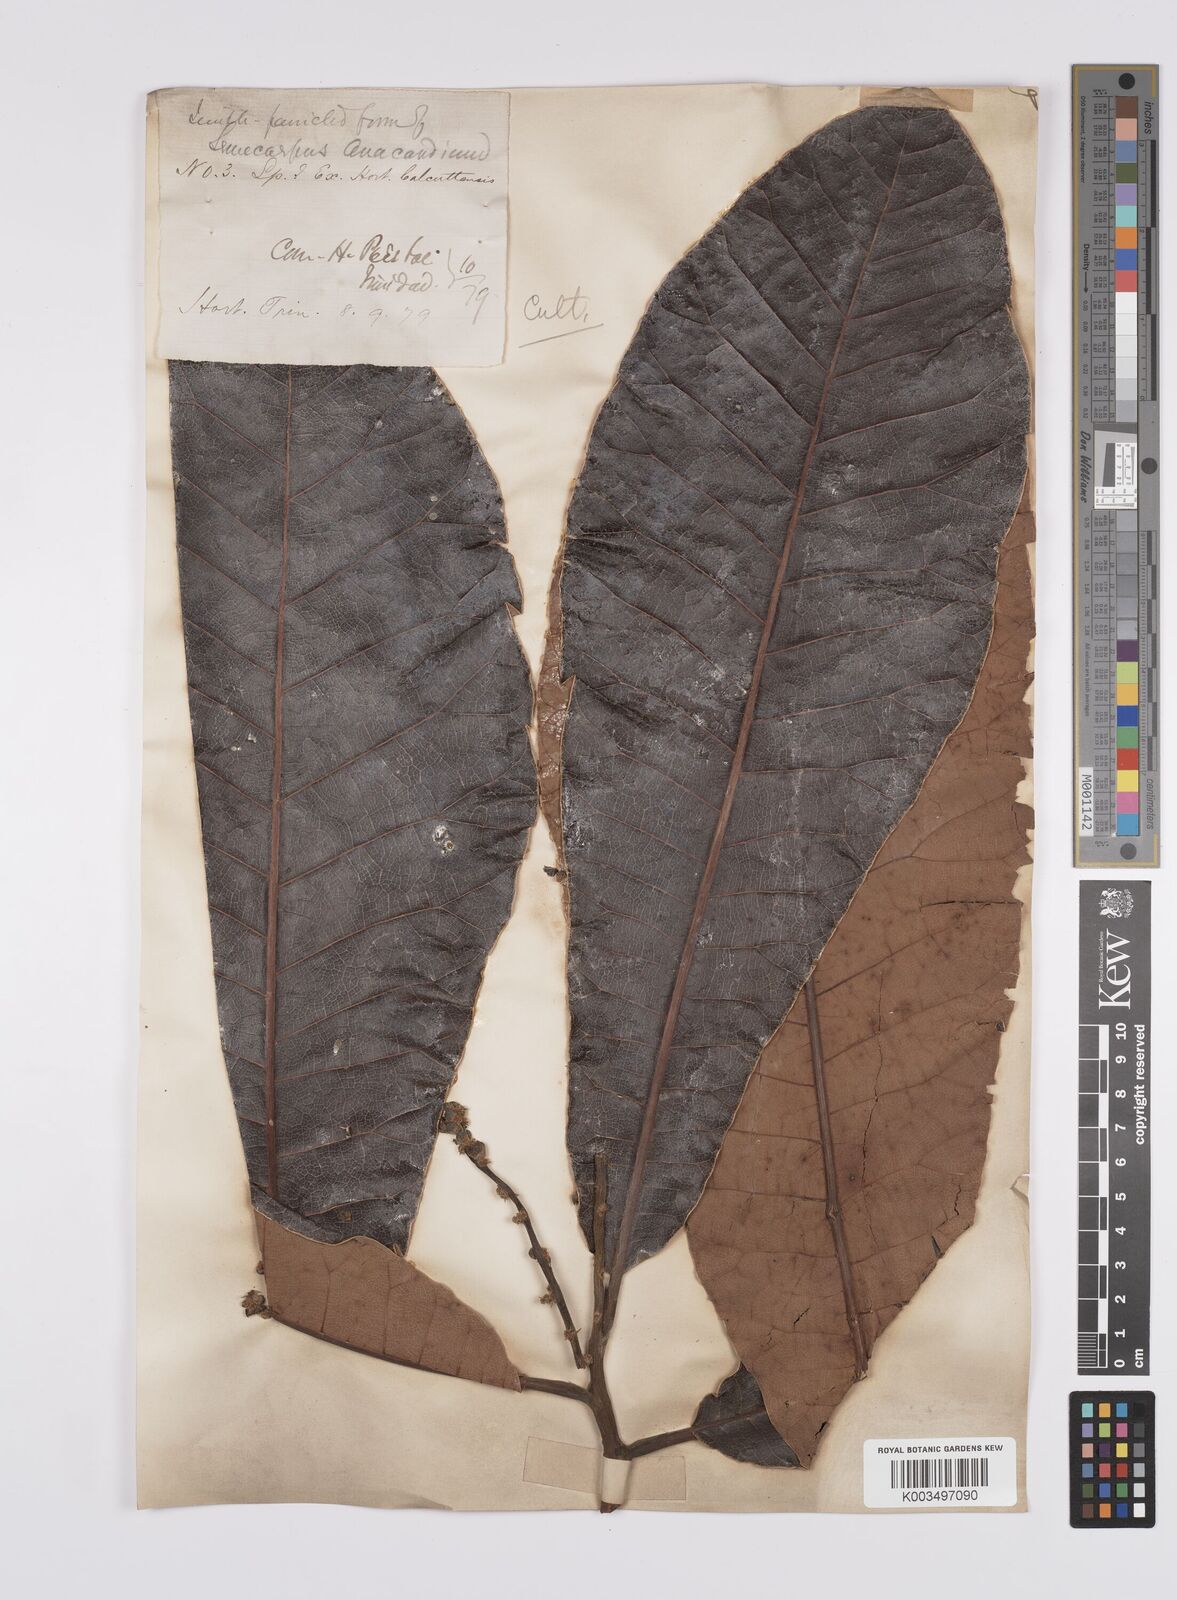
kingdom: Plantae
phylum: Tracheophyta
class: Magnoliopsida
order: Sapindales
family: Anacardiaceae
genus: Semecarpus
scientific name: Semecarpus anacardium
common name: Marking nut-tree
